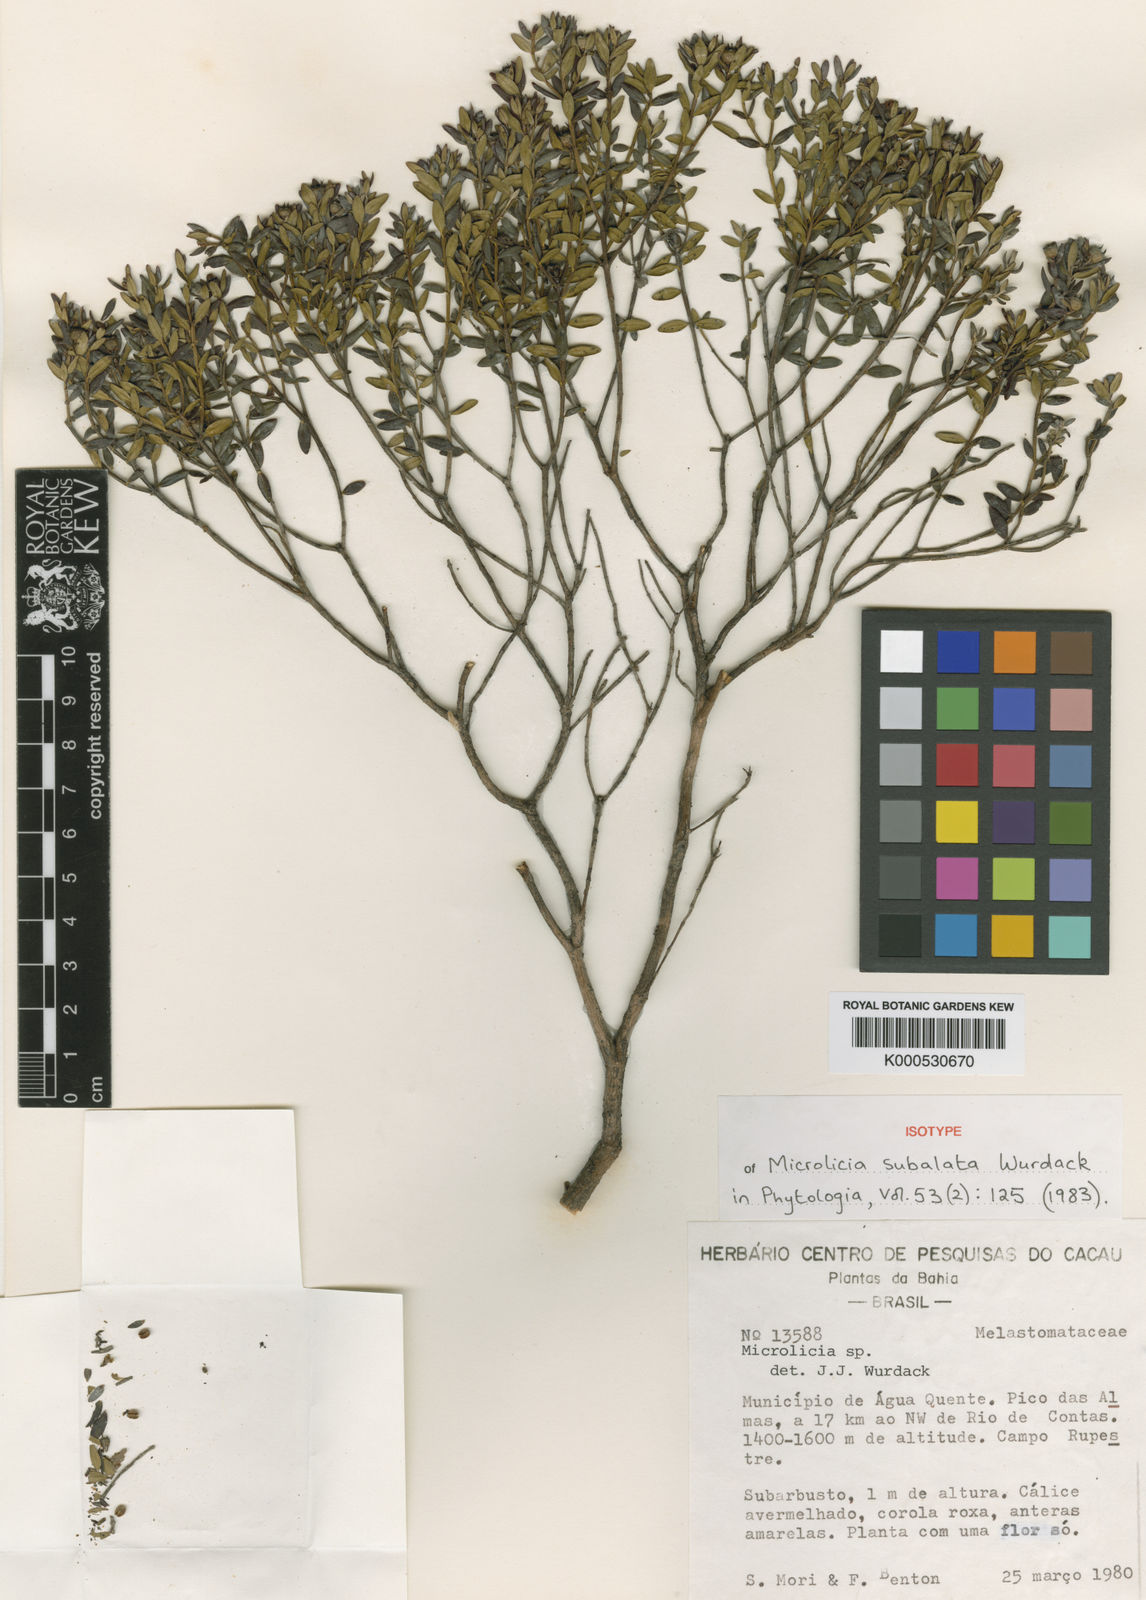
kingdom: Plantae
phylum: Tracheophyta
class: Magnoliopsida
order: Myrtales
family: Melastomataceae
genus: Microlicia
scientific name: Microlicia subalata
